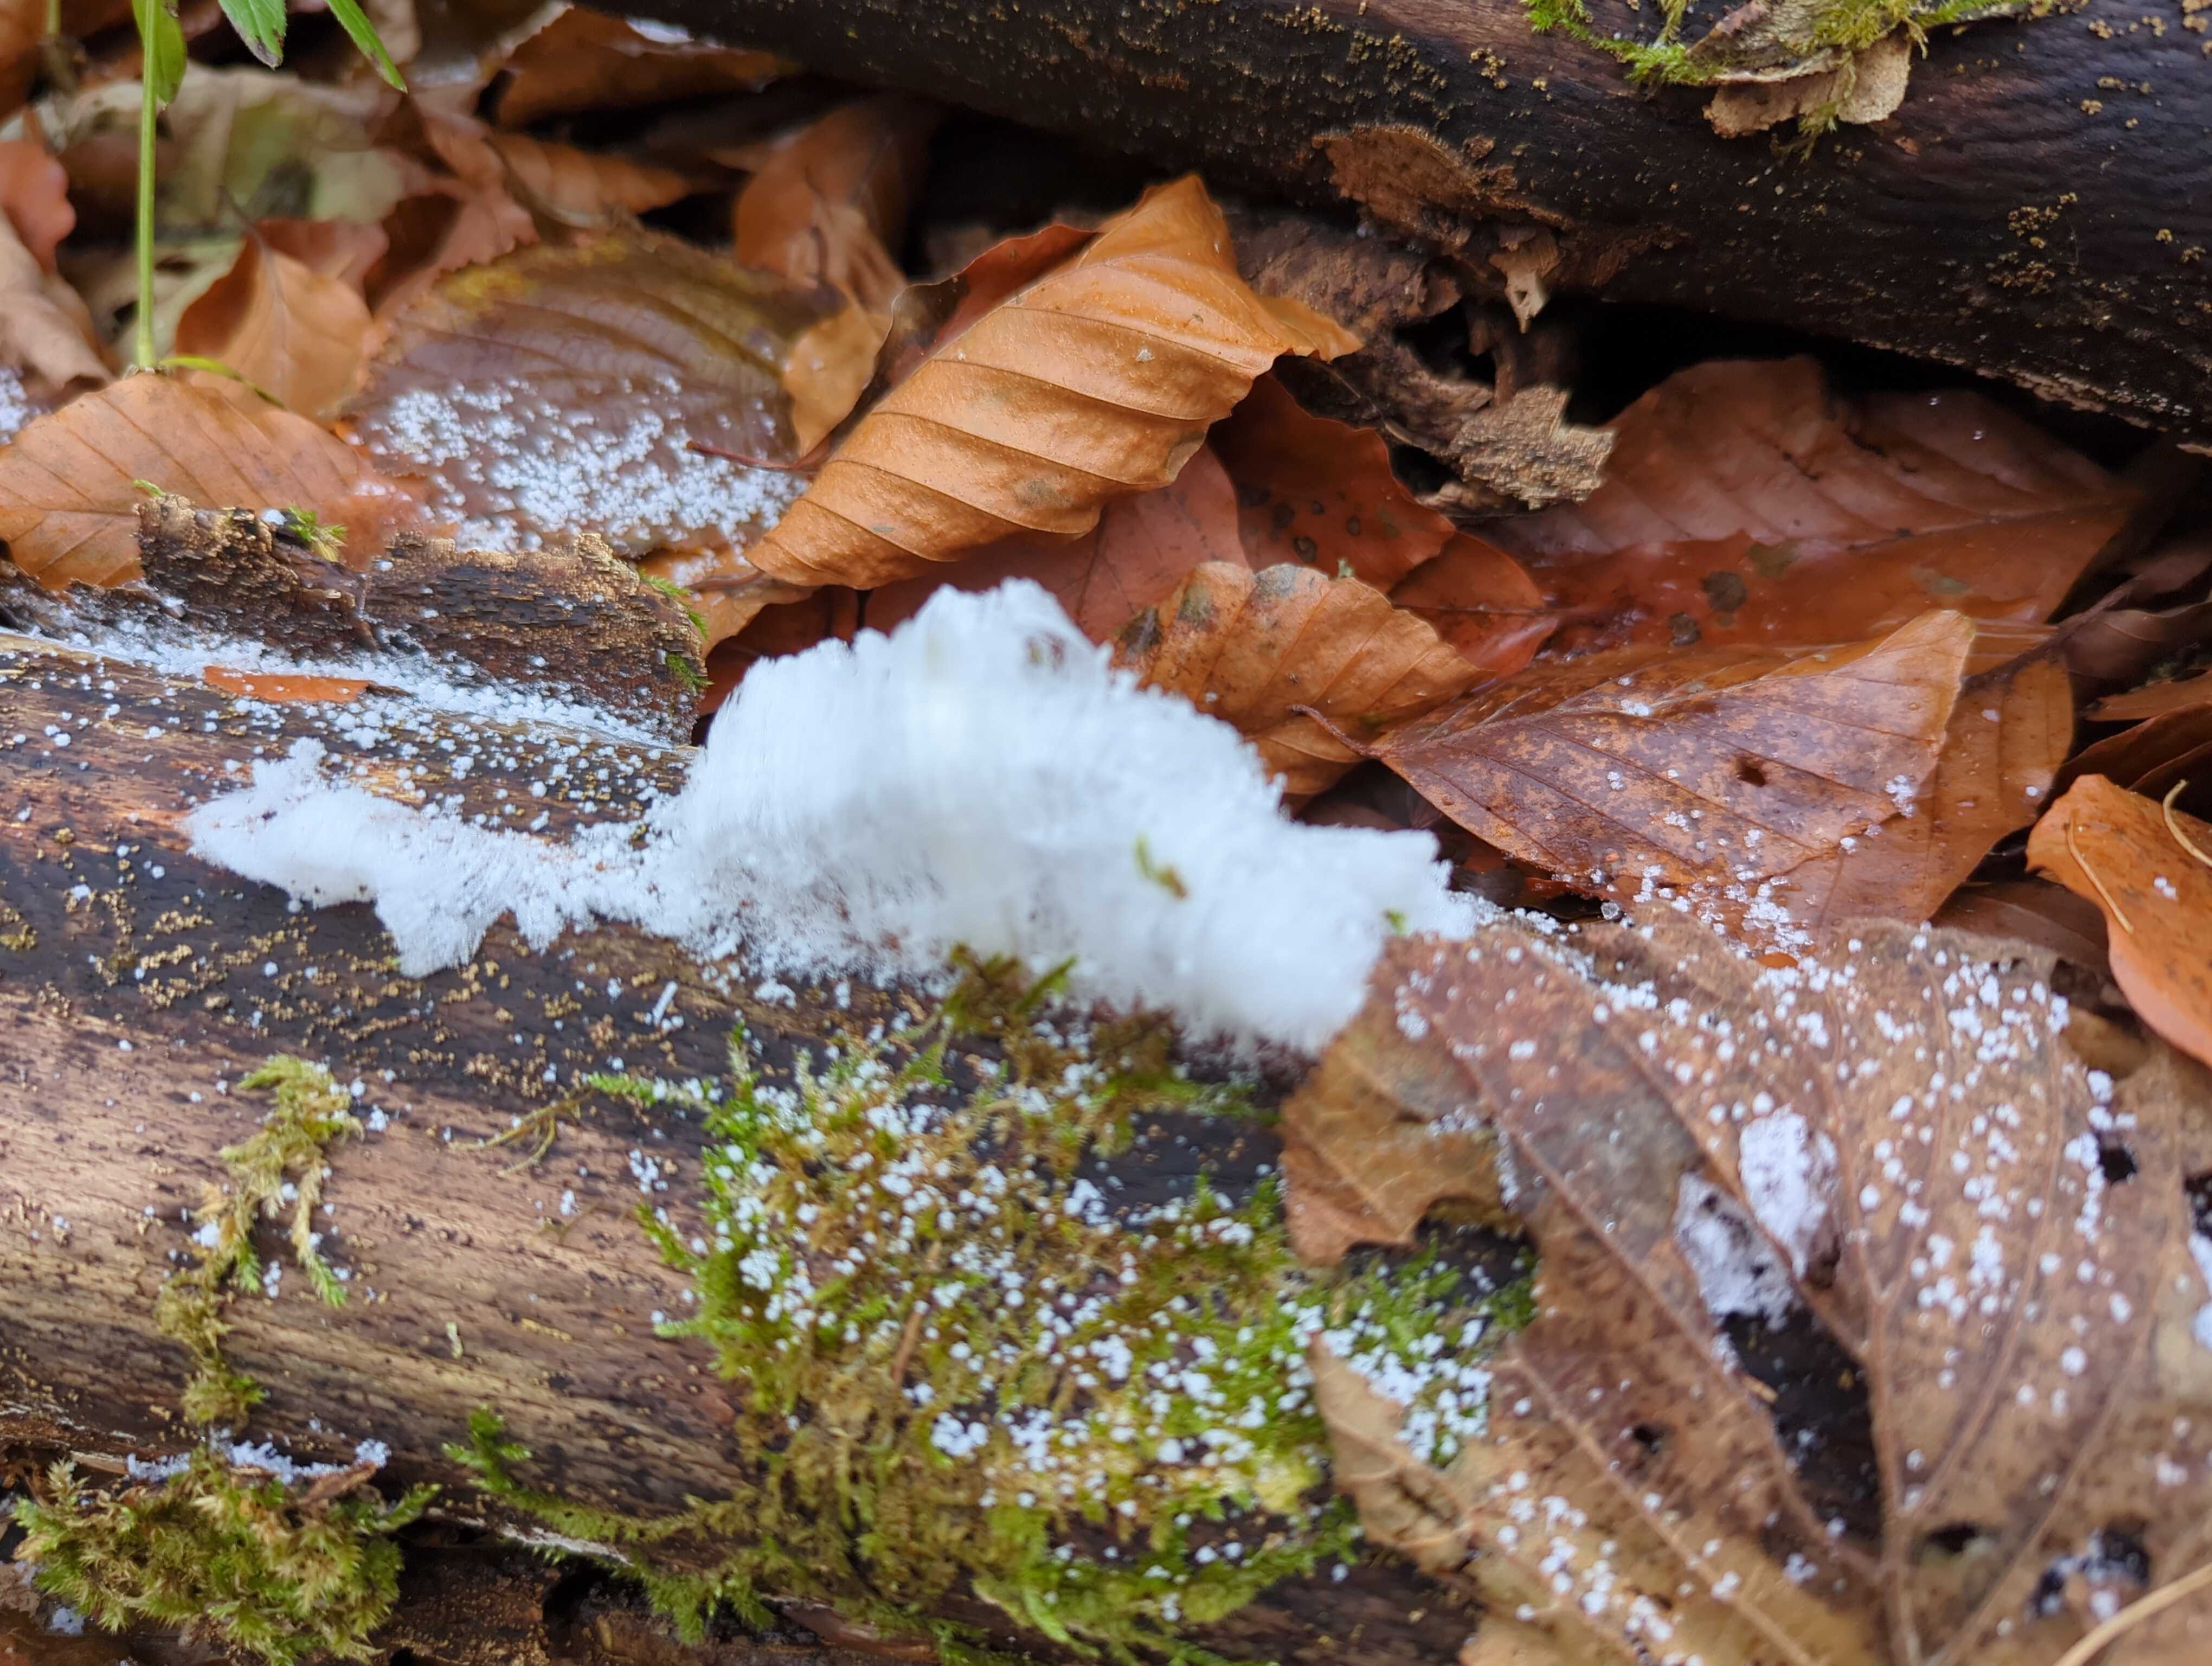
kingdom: Fungi
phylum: Basidiomycota
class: Tremellomycetes
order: Tremellales
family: Exidiaceae
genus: Exidiopsis
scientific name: Exidiopsis effusa
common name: smuk bævrehinde
